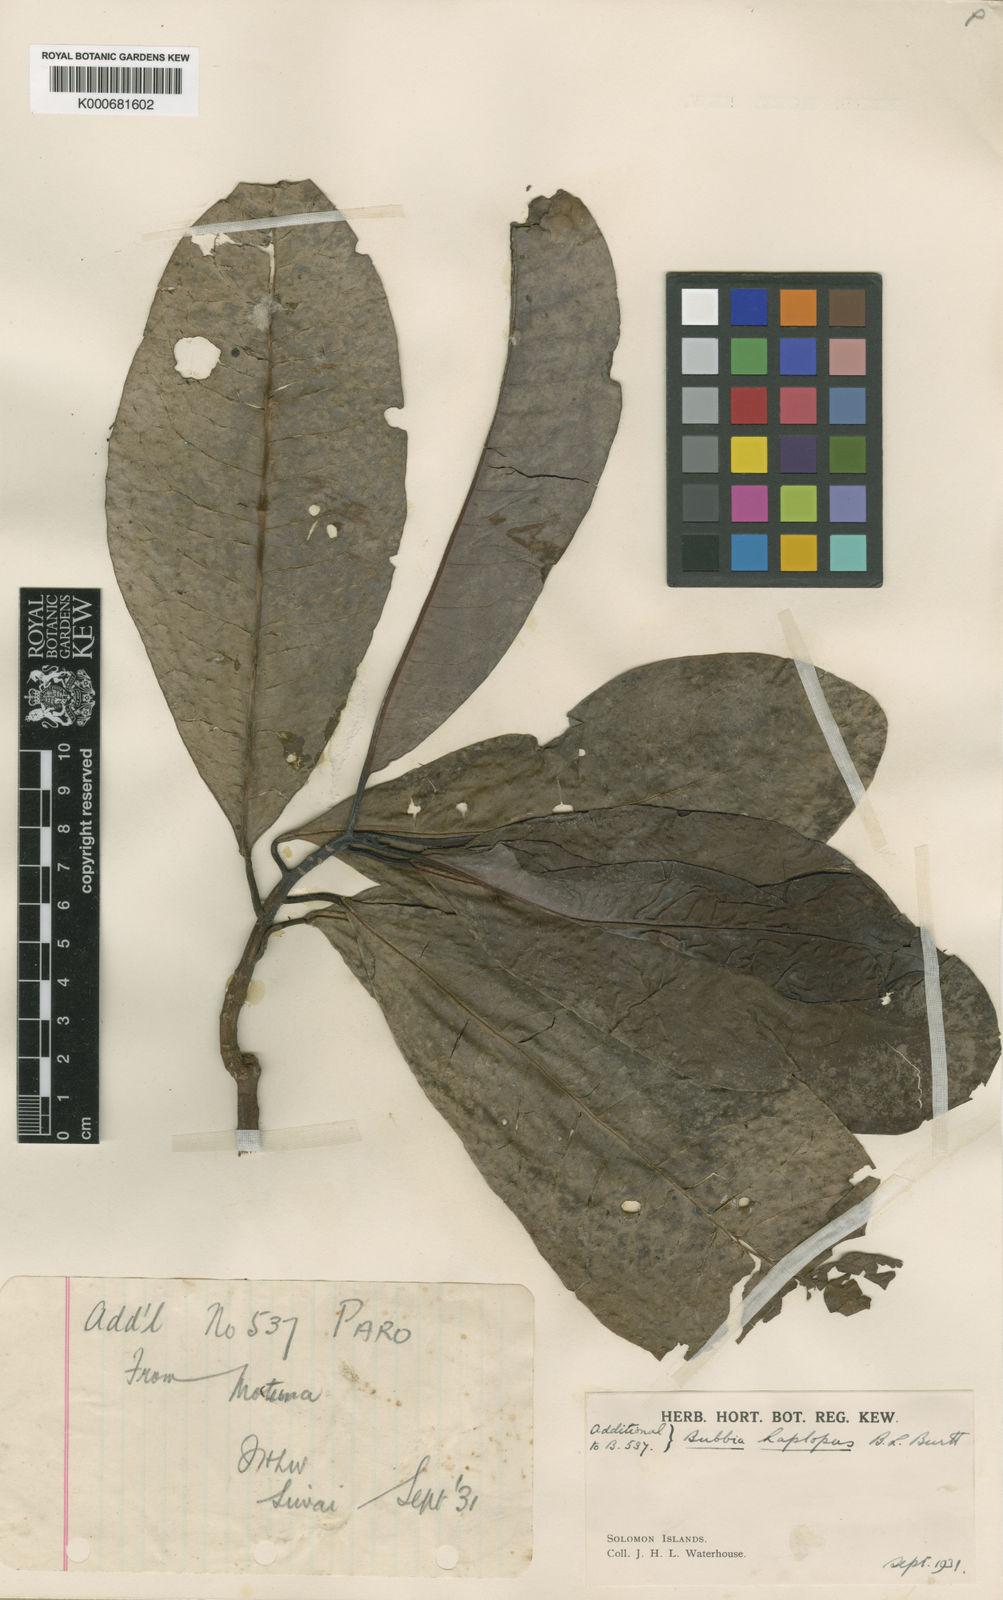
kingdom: Plantae
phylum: Tracheophyta
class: Magnoliopsida
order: Canellales
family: Winteraceae
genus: Zygogynum
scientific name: Zygogynum haplopus
